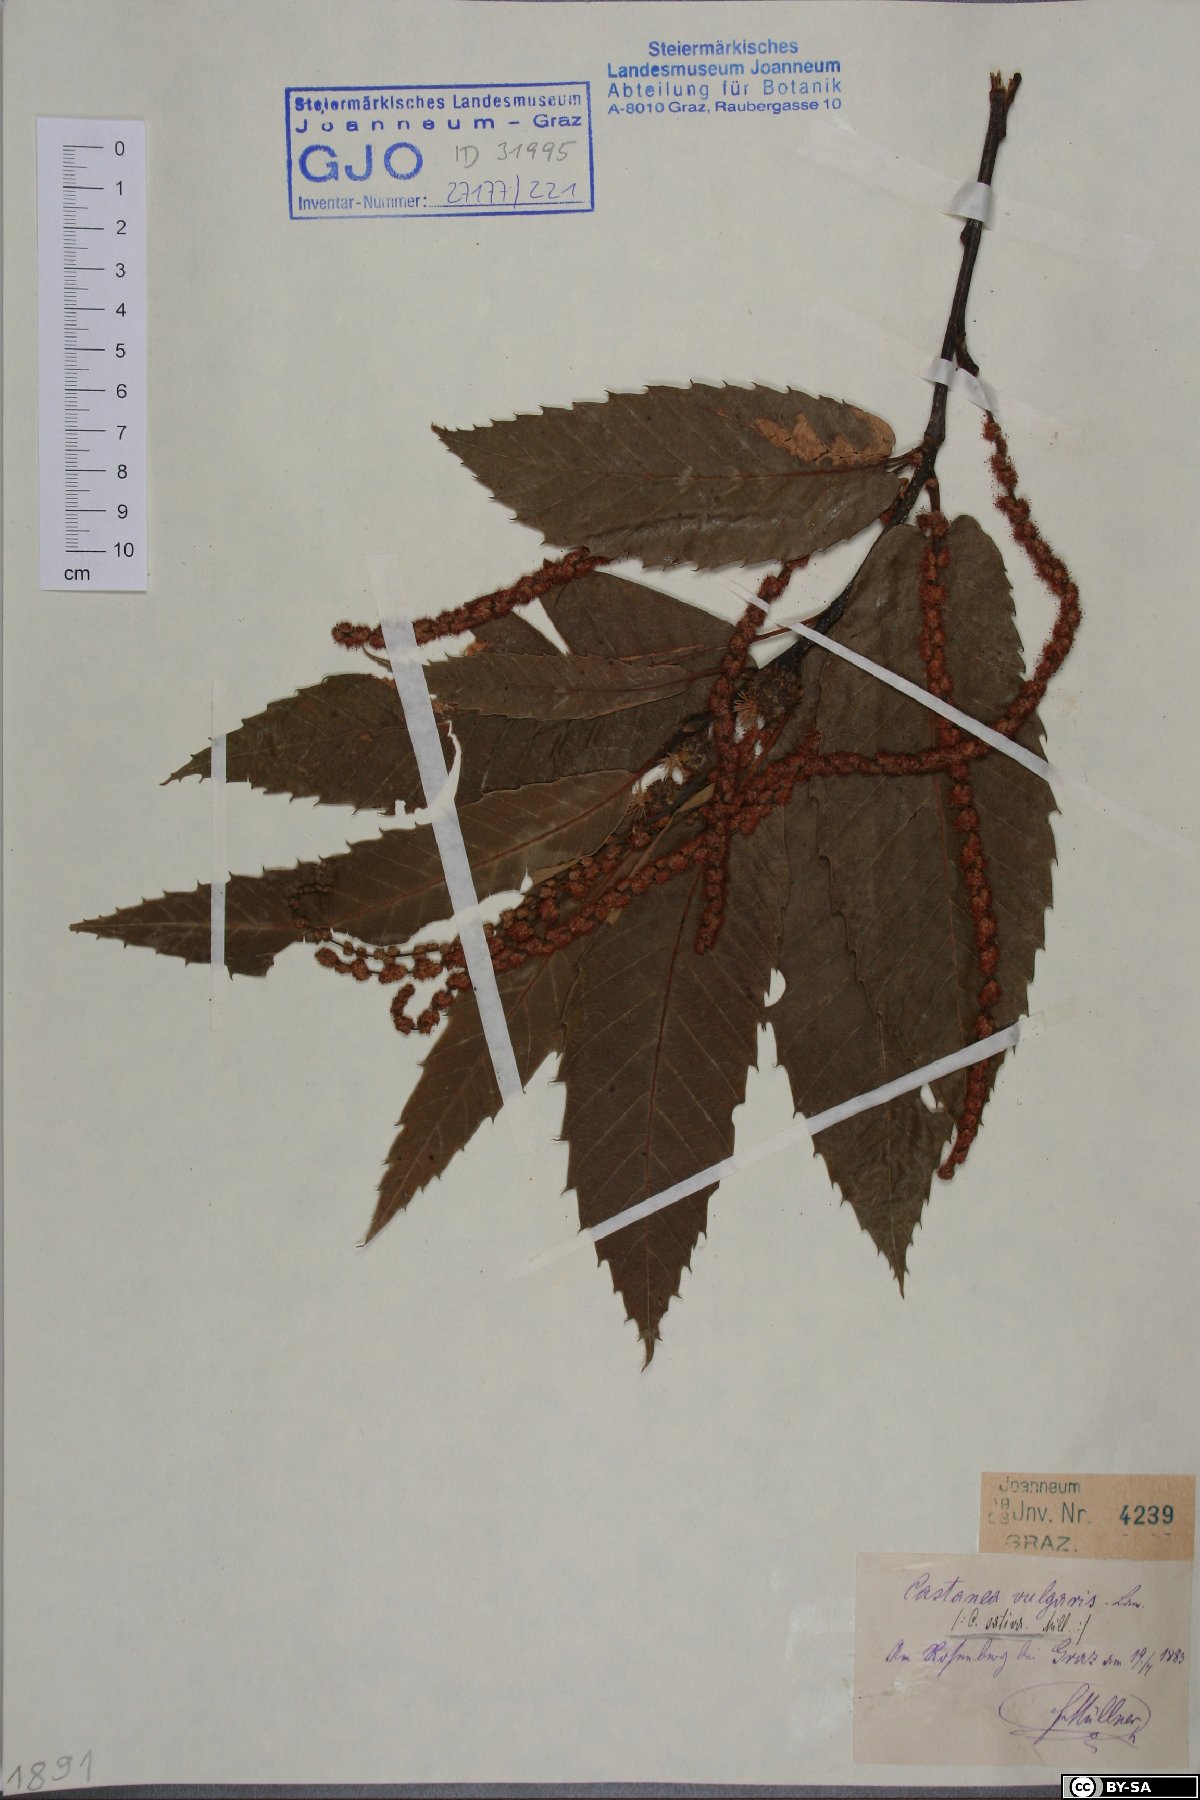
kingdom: Plantae
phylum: Tracheophyta
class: Magnoliopsida
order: Fagales
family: Fagaceae
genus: Castanea
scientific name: Castanea sativa
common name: Sweet chestnut
